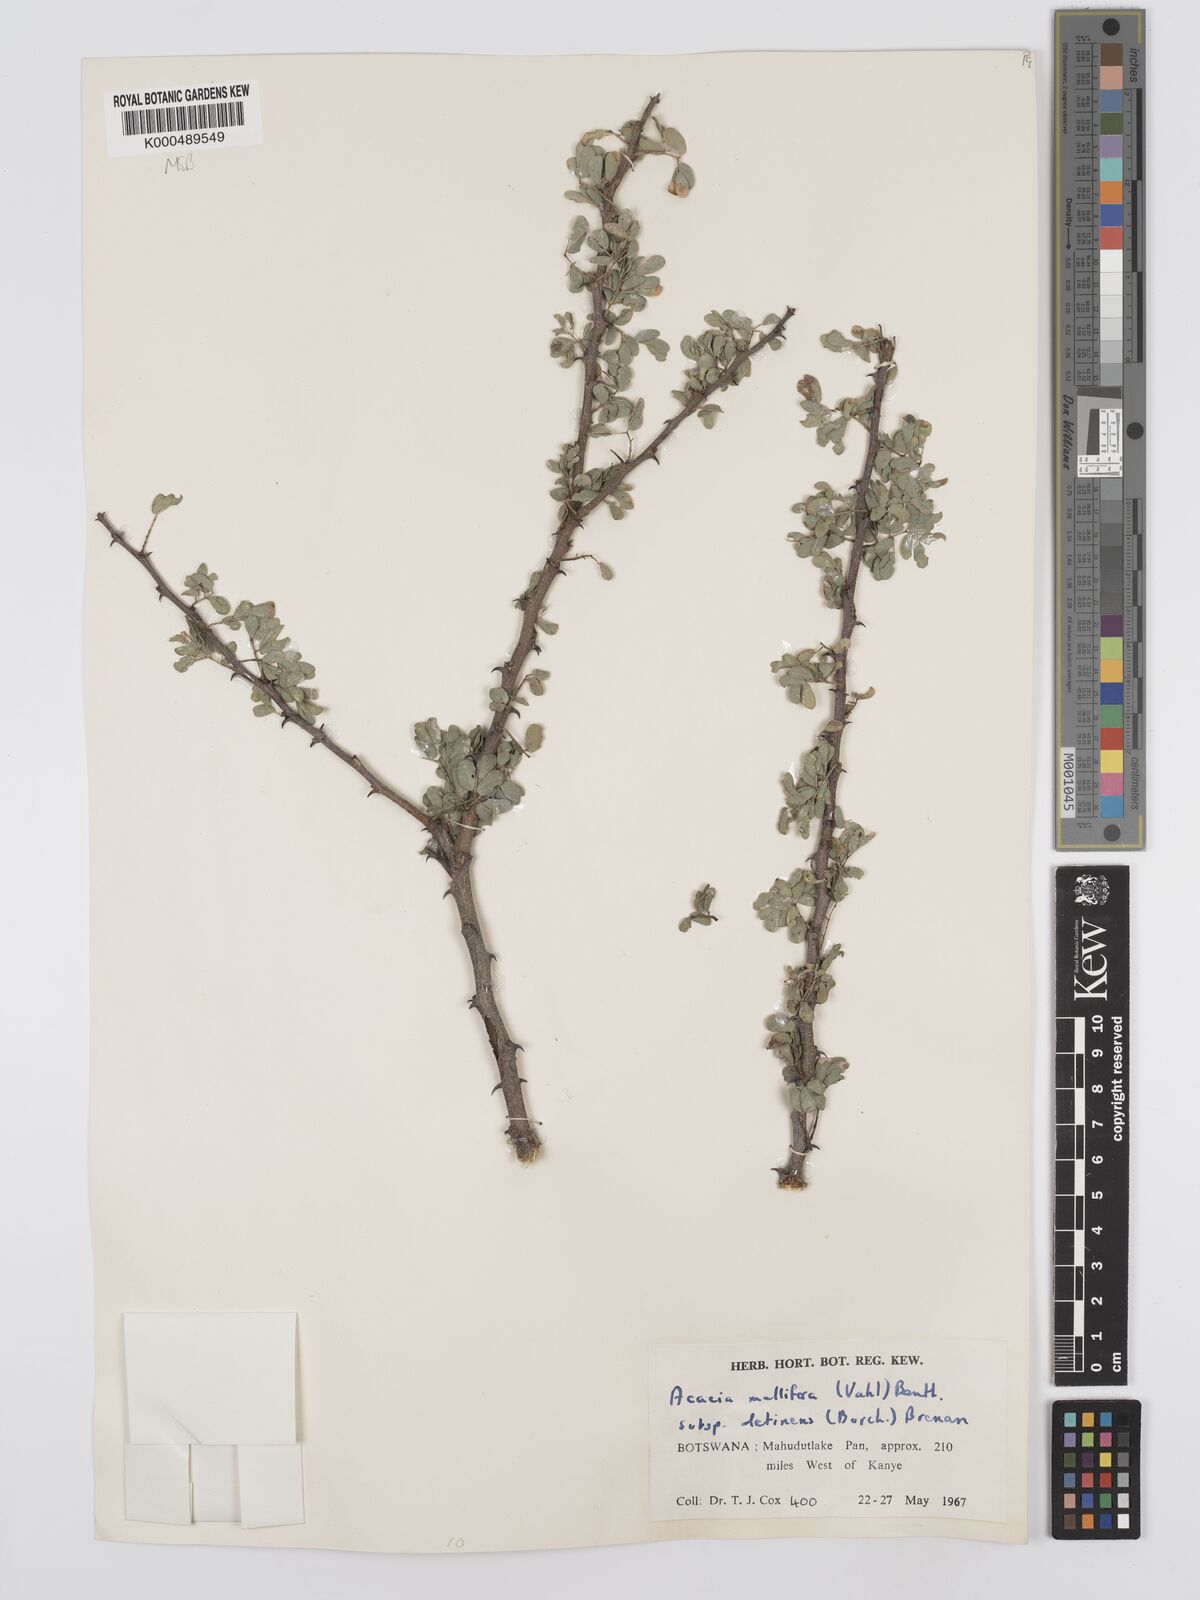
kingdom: Plantae
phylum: Tracheophyta
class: Magnoliopsida
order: Fabales
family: Fabaceae
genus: Senegalia
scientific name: Senegalia mellifera
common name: Hookthorn
